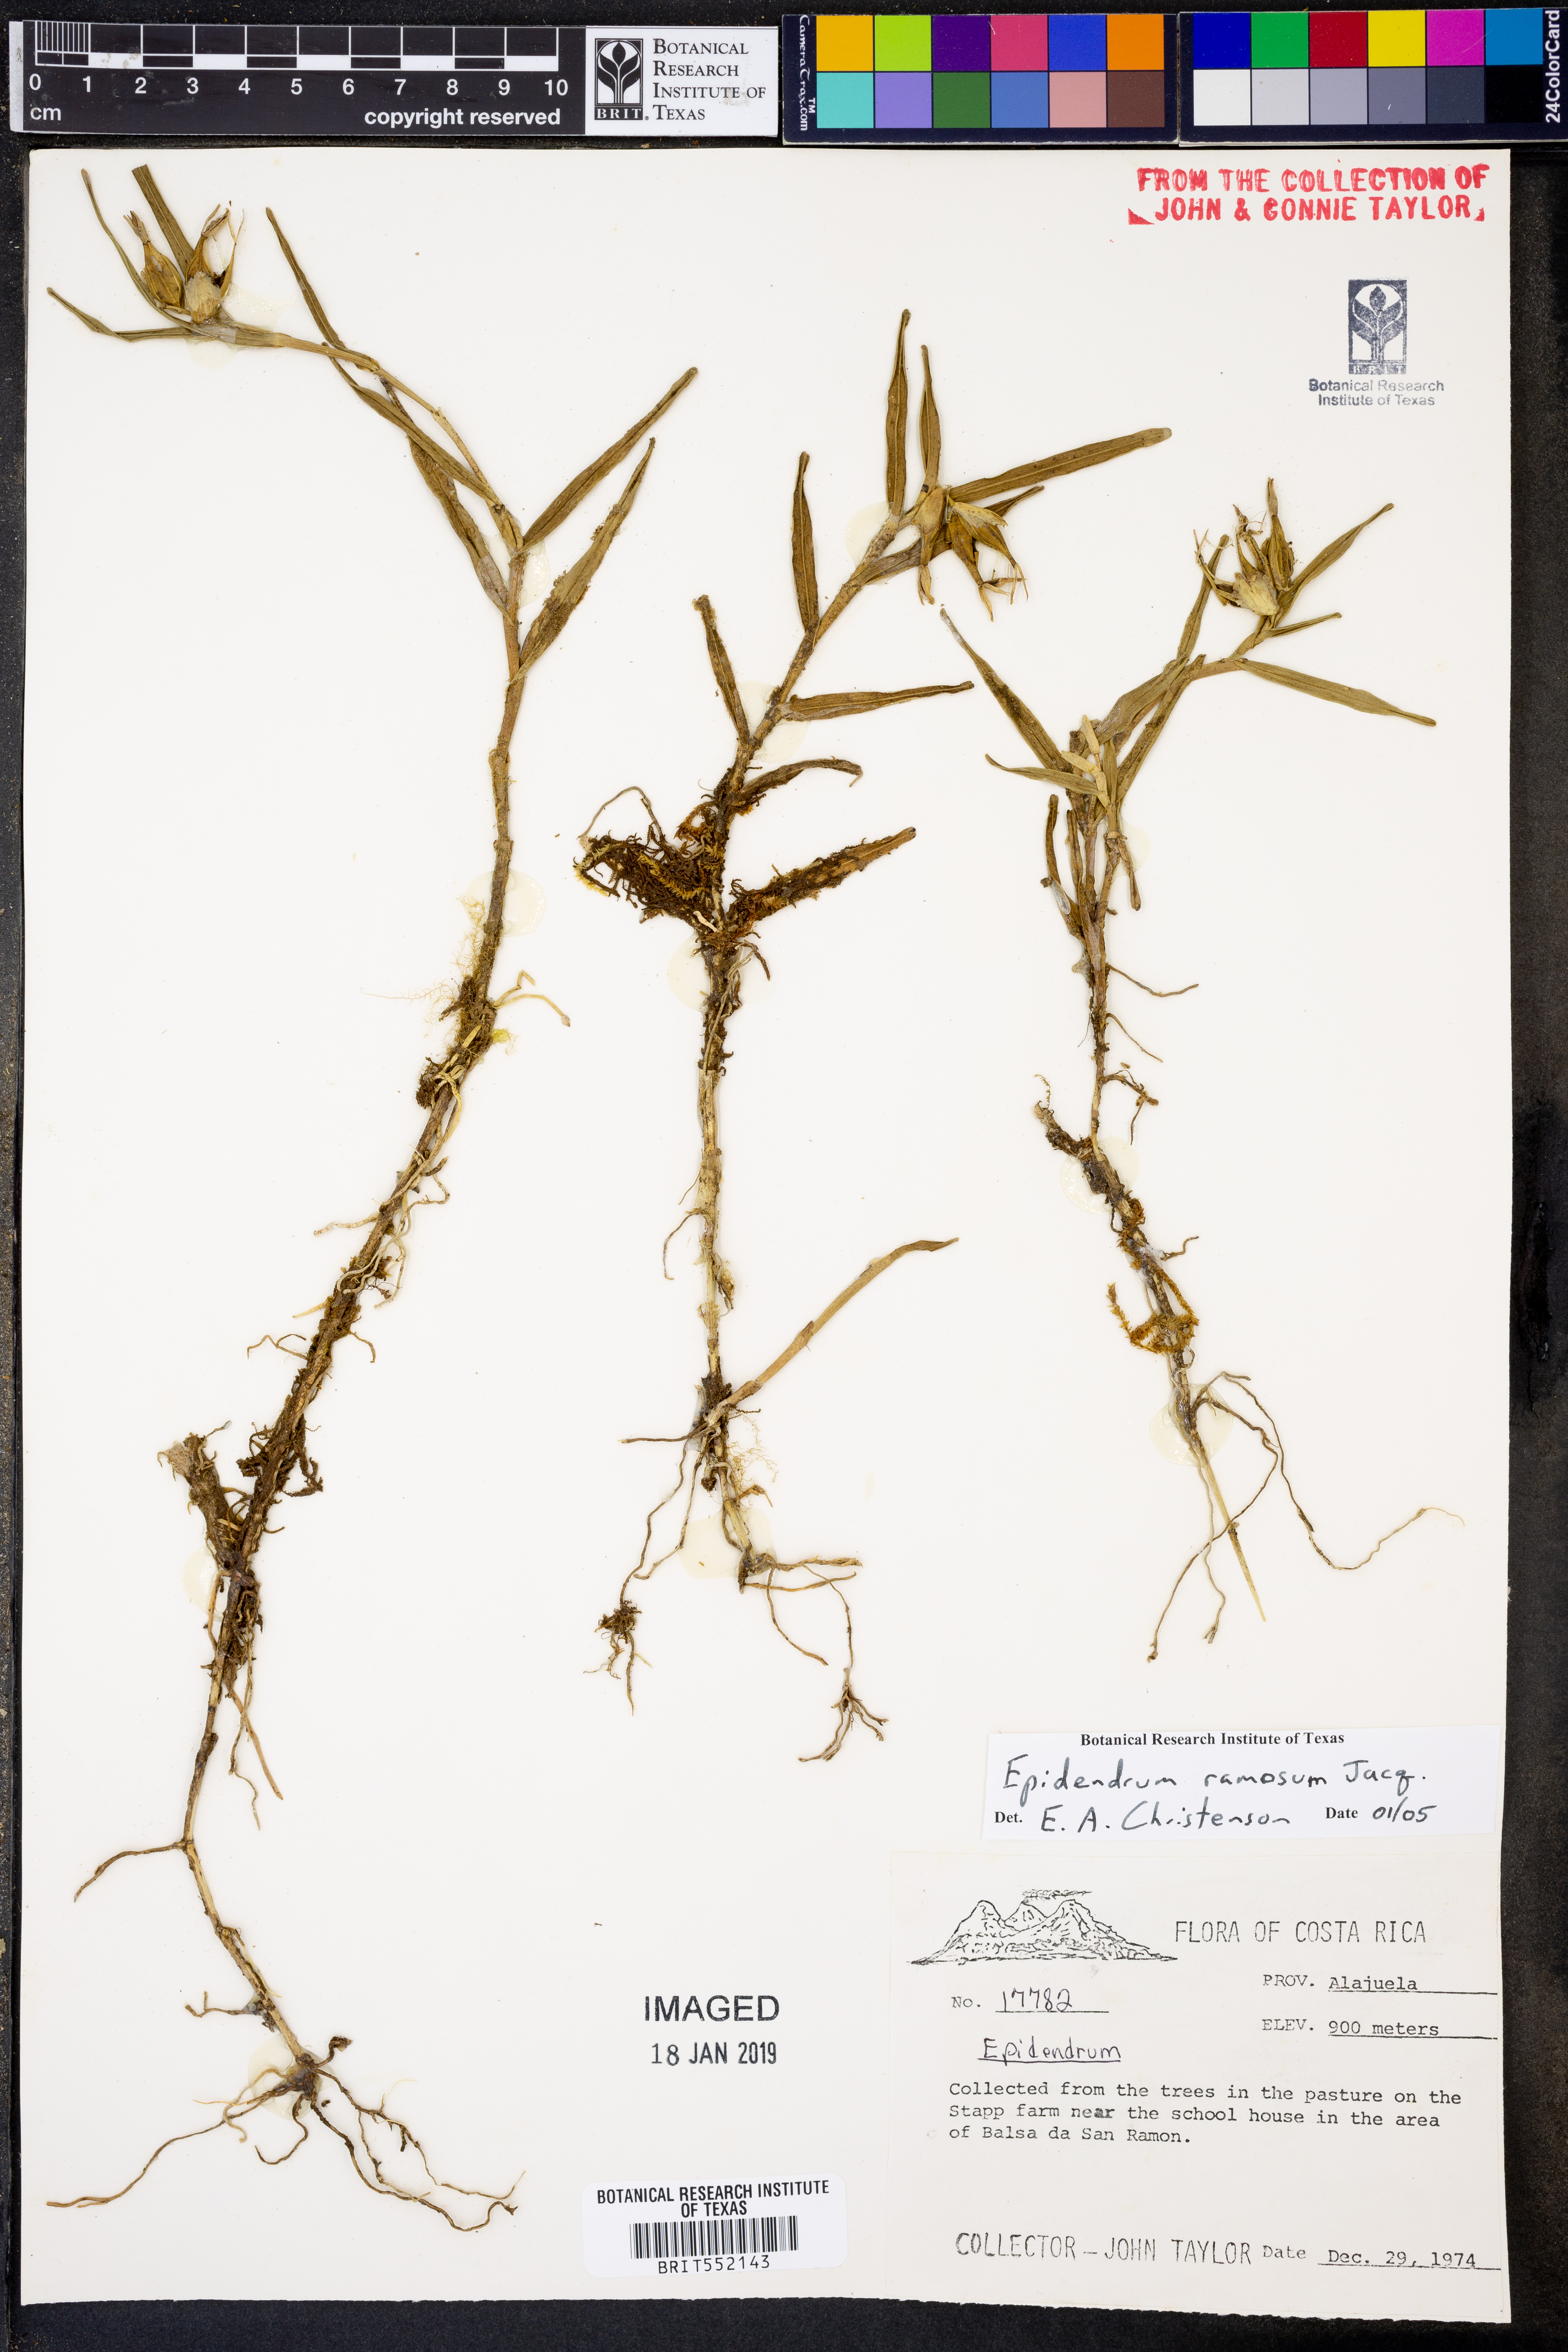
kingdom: Plantae
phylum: Tracheophyta
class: Liliopsida
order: Asparagales
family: Orchidaceae
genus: Epidendrum
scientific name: Epidendrum ramosum
